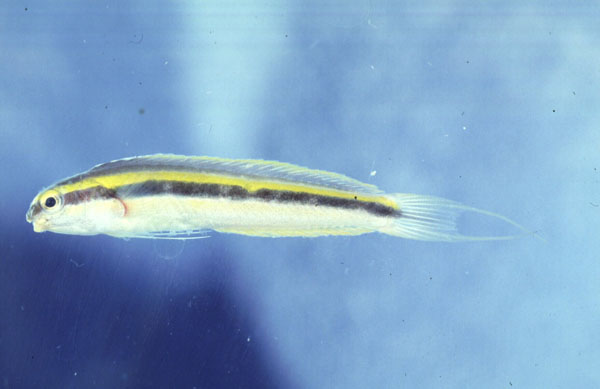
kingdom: Animalia
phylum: Chordata
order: Perciformes
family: Blenniidae
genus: Meiacanthus
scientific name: Meiacanthus
